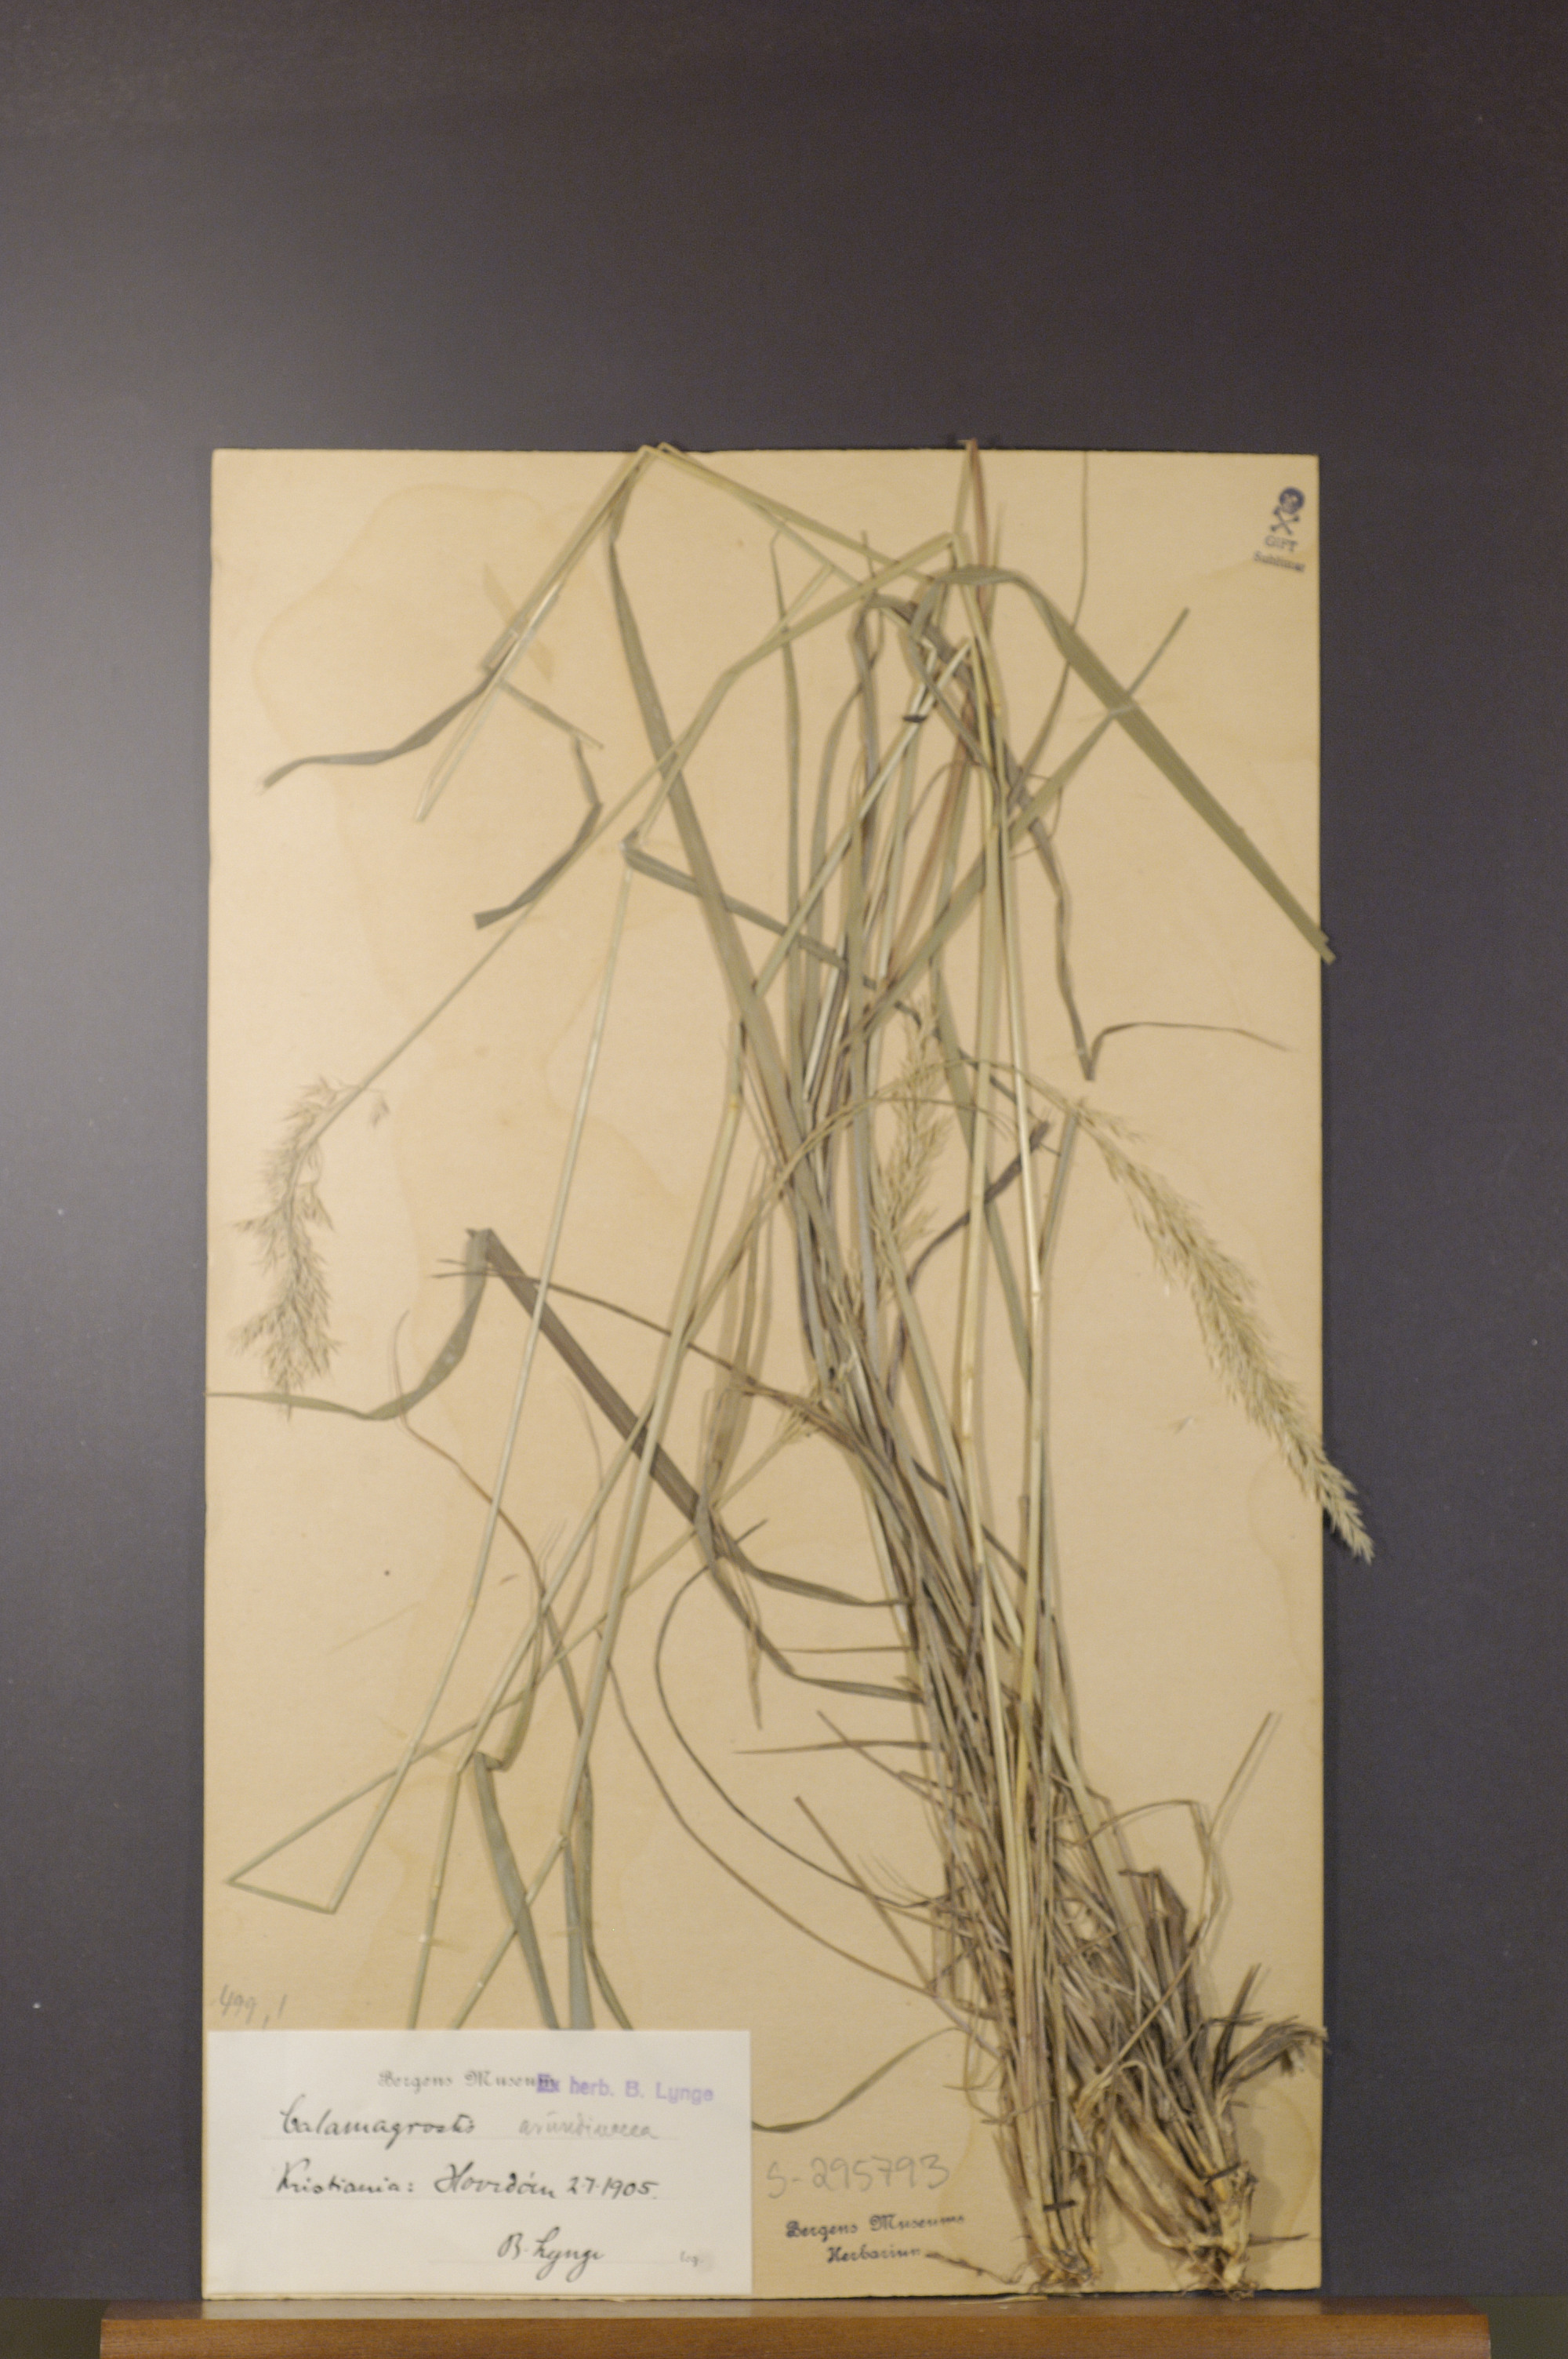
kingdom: Plantae
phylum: Tracheophyta
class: Liliopsida
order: Poales
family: Poaceae
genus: Calamagrostis
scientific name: Calamagrostis arundinacea
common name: Metskastik
